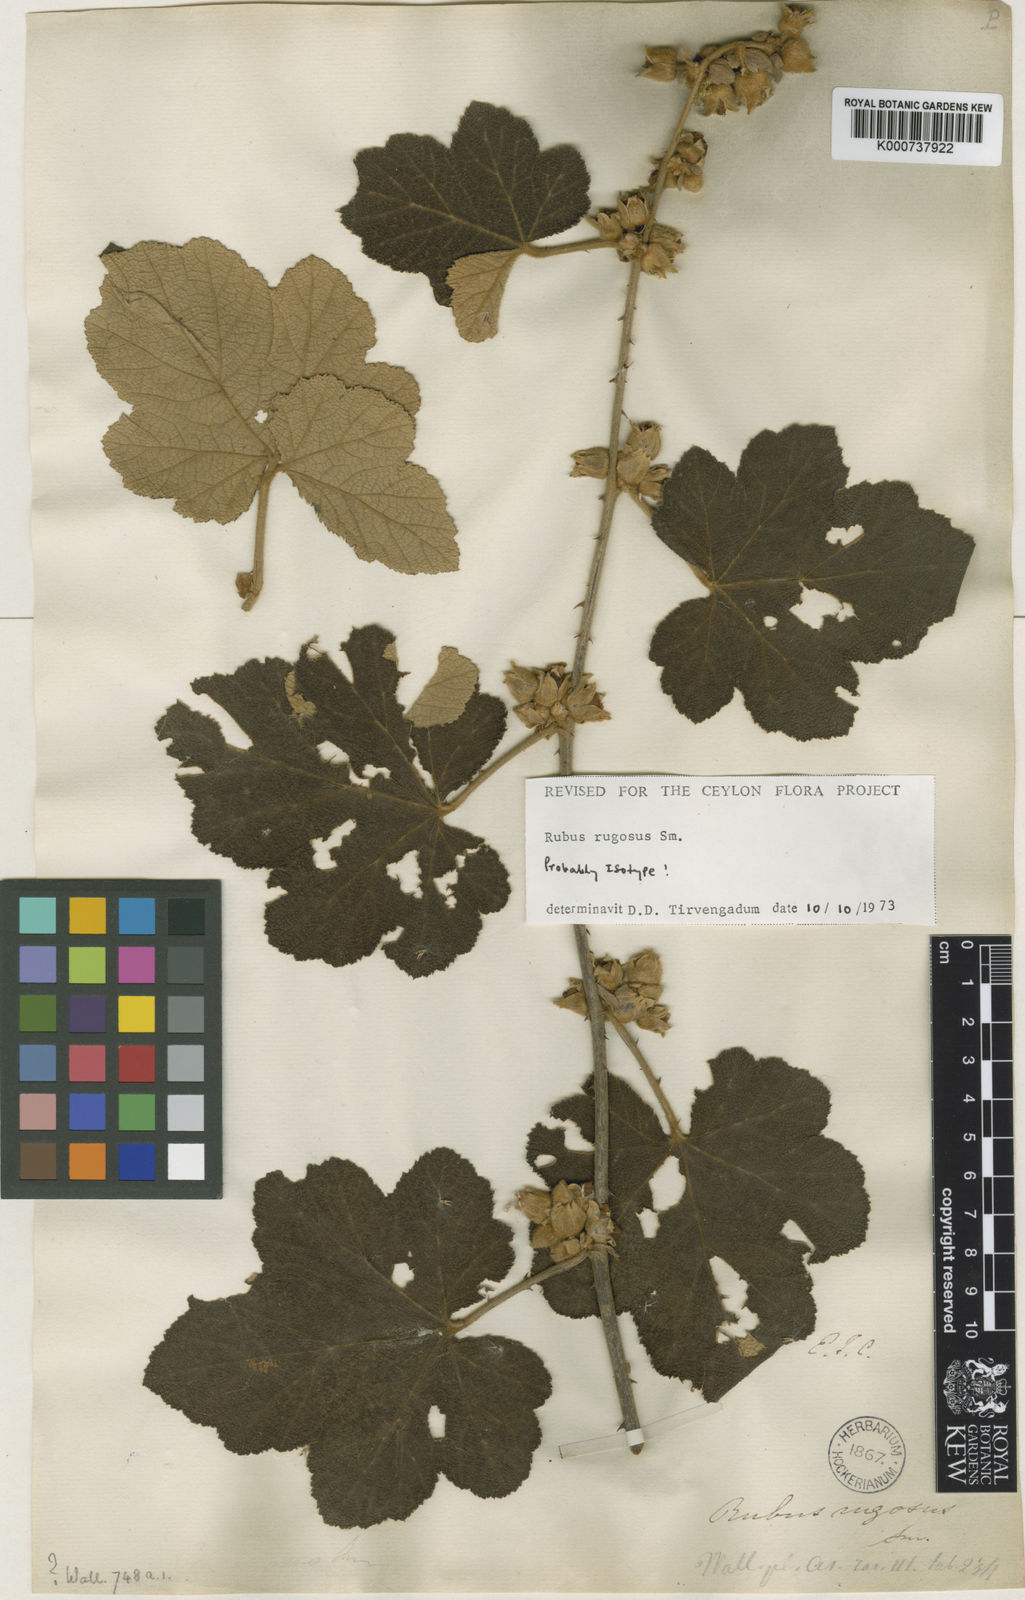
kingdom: Plantae
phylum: Tracheophyta
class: Magnoliopsida
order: Rosales
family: Rosaceae
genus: Rubus
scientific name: Rubus rugosus
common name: Himalayan blackberry
